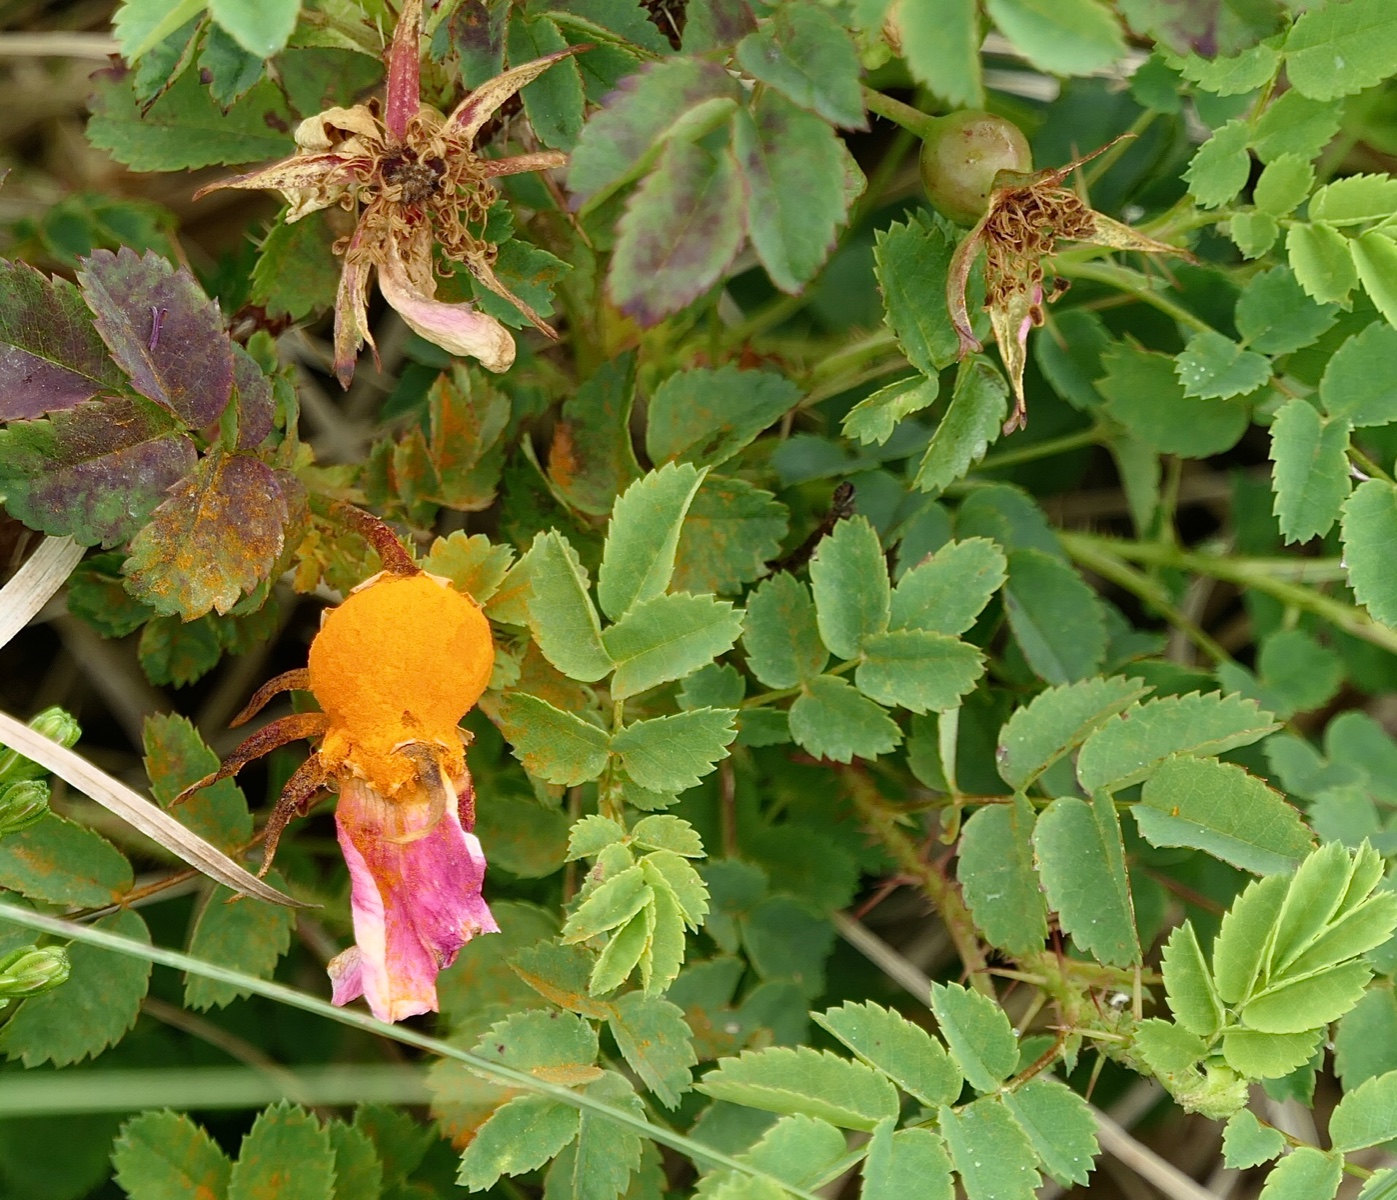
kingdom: Fungi
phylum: Basidiomycota
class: Pucciniomycetes
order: Pucciniales
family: Phragmidiaceae
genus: Phragmidium
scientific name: Phragmidium rosae-pimpinellifoliae
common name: Burnet rose rust
